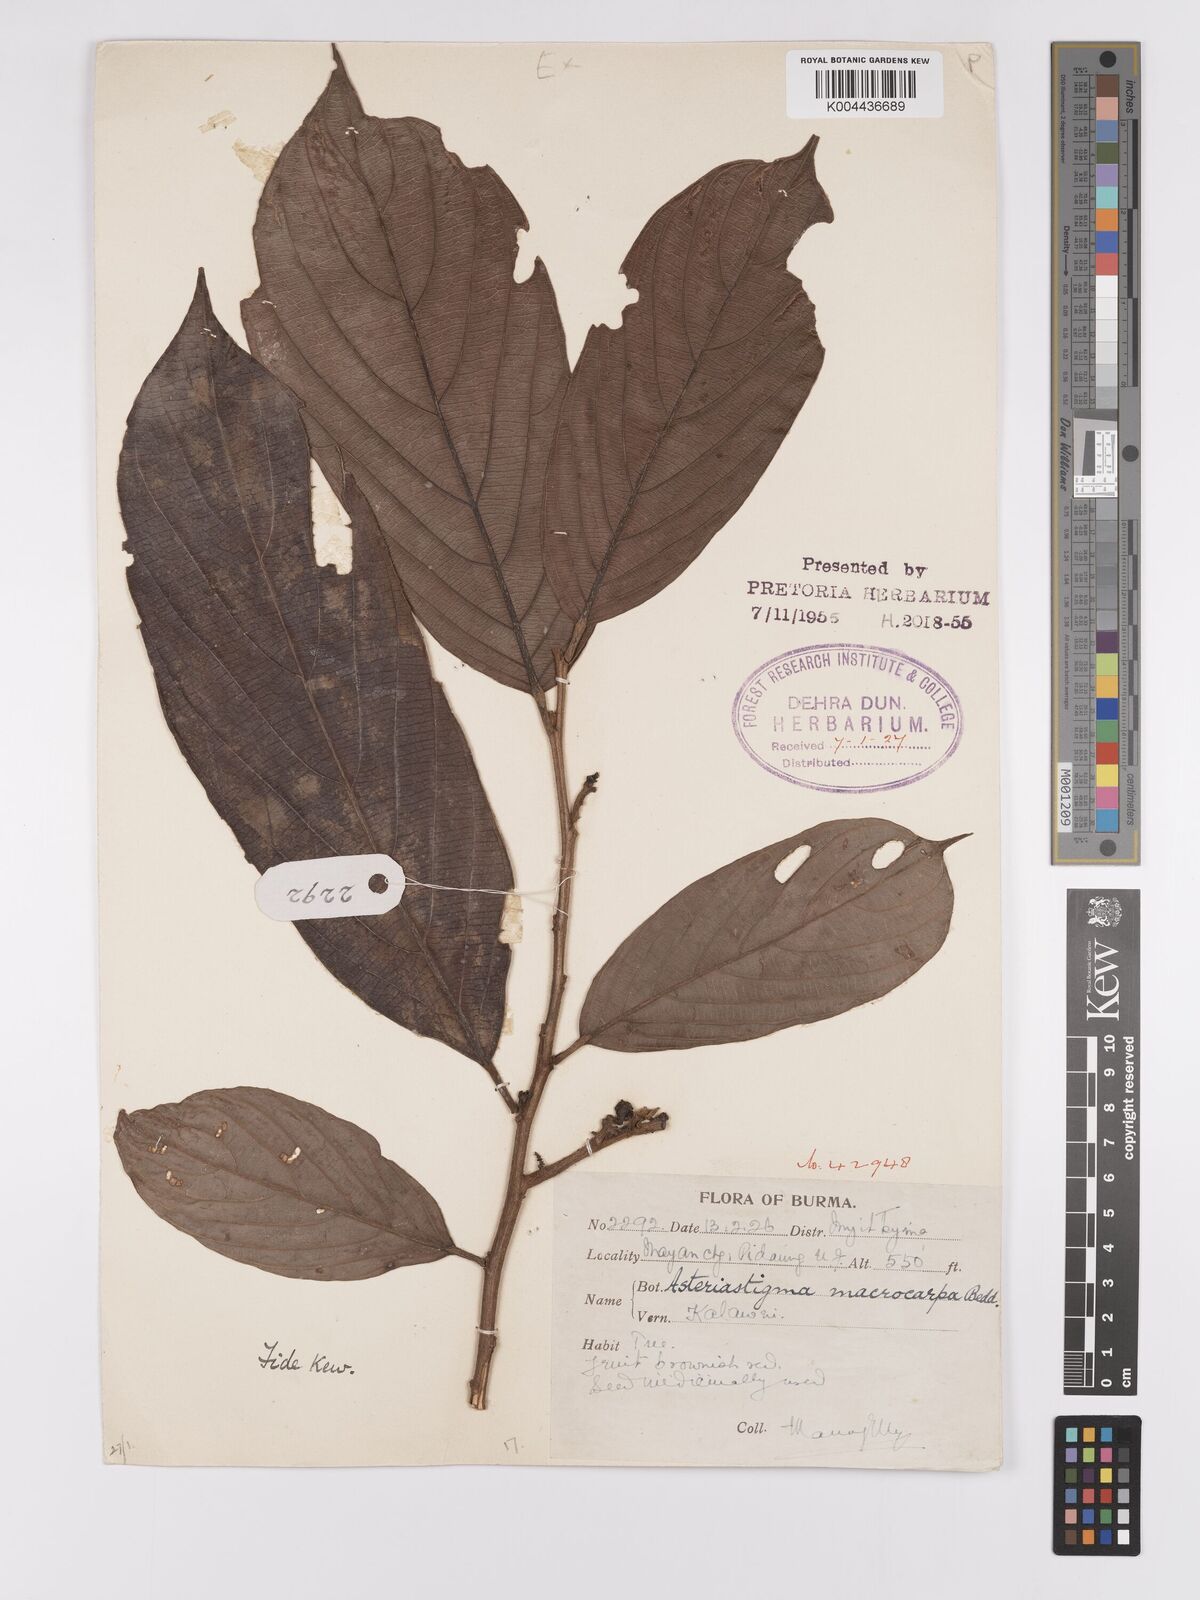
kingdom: Plantae
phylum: Tracheophyta
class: Magnoliopsida
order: Malpighiales
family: Achariaceae
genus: Hydnocarpus
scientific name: Hydnocarpus macrocarpus
